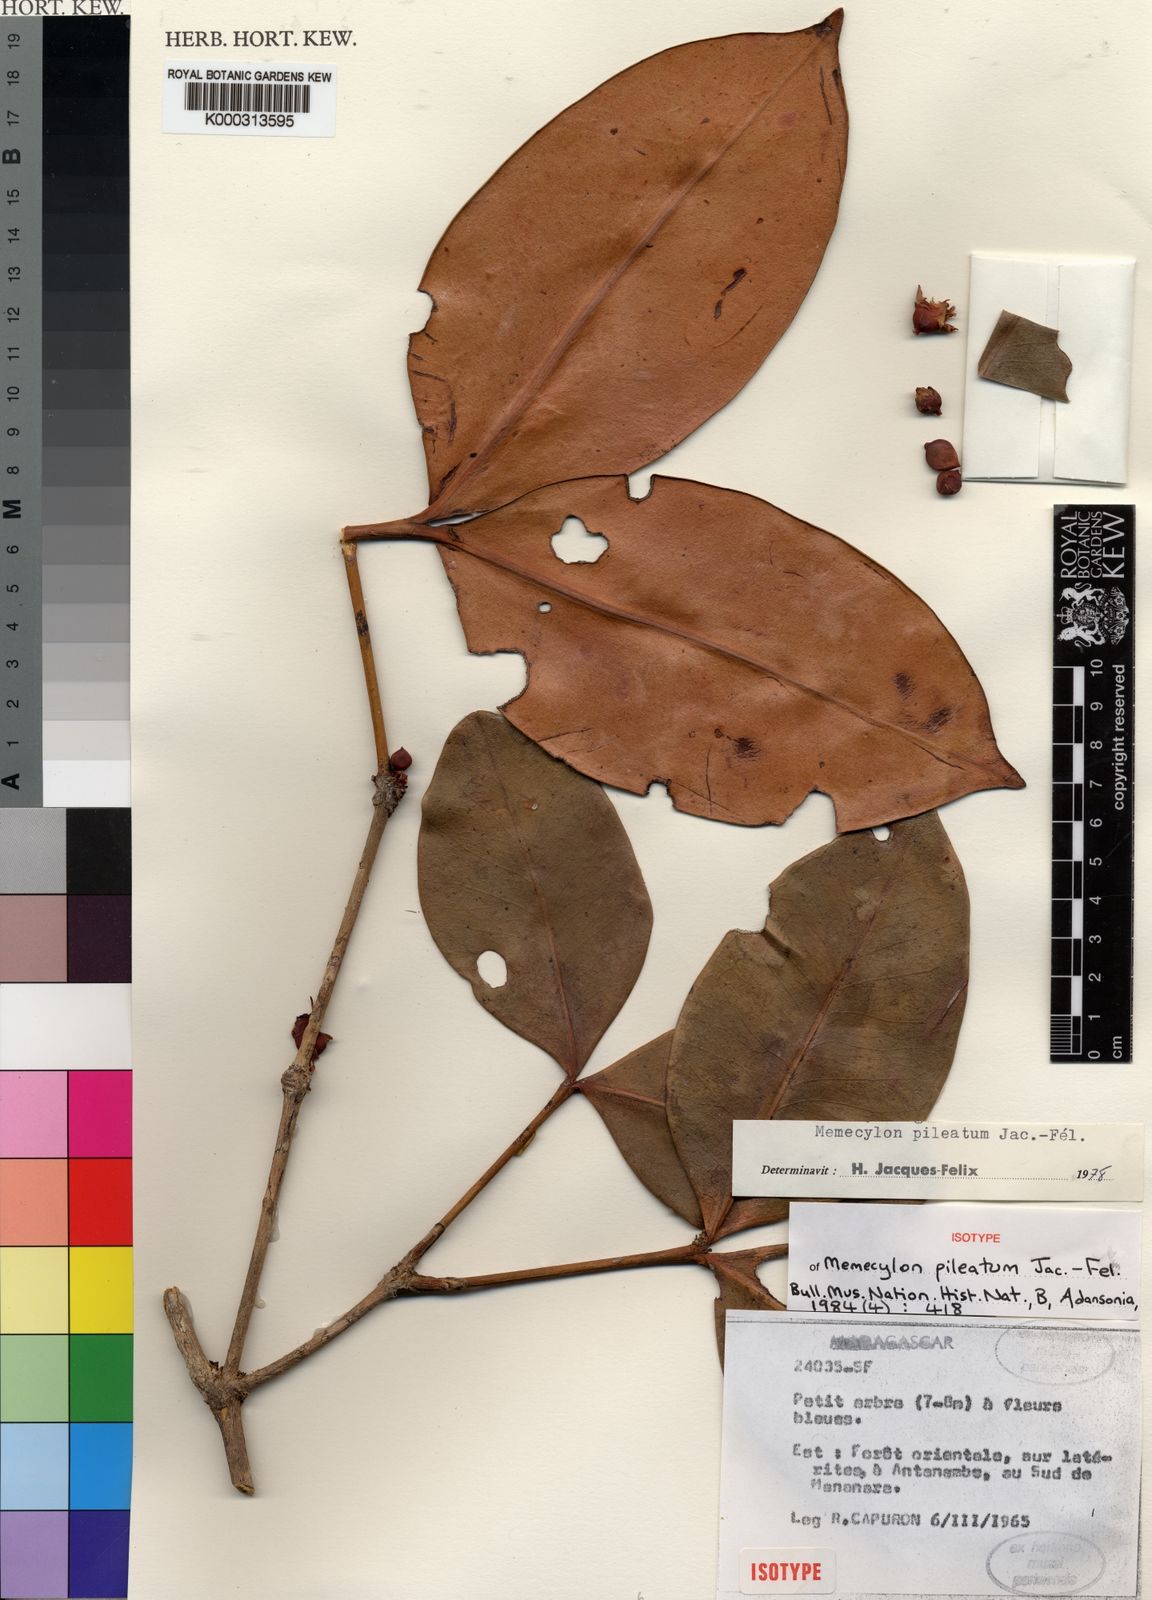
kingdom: Plantae
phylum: Tracheophyta
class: Magnoliopsida
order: Myrtales
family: Melastomataceae
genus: Memecylon
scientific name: Memecylon
